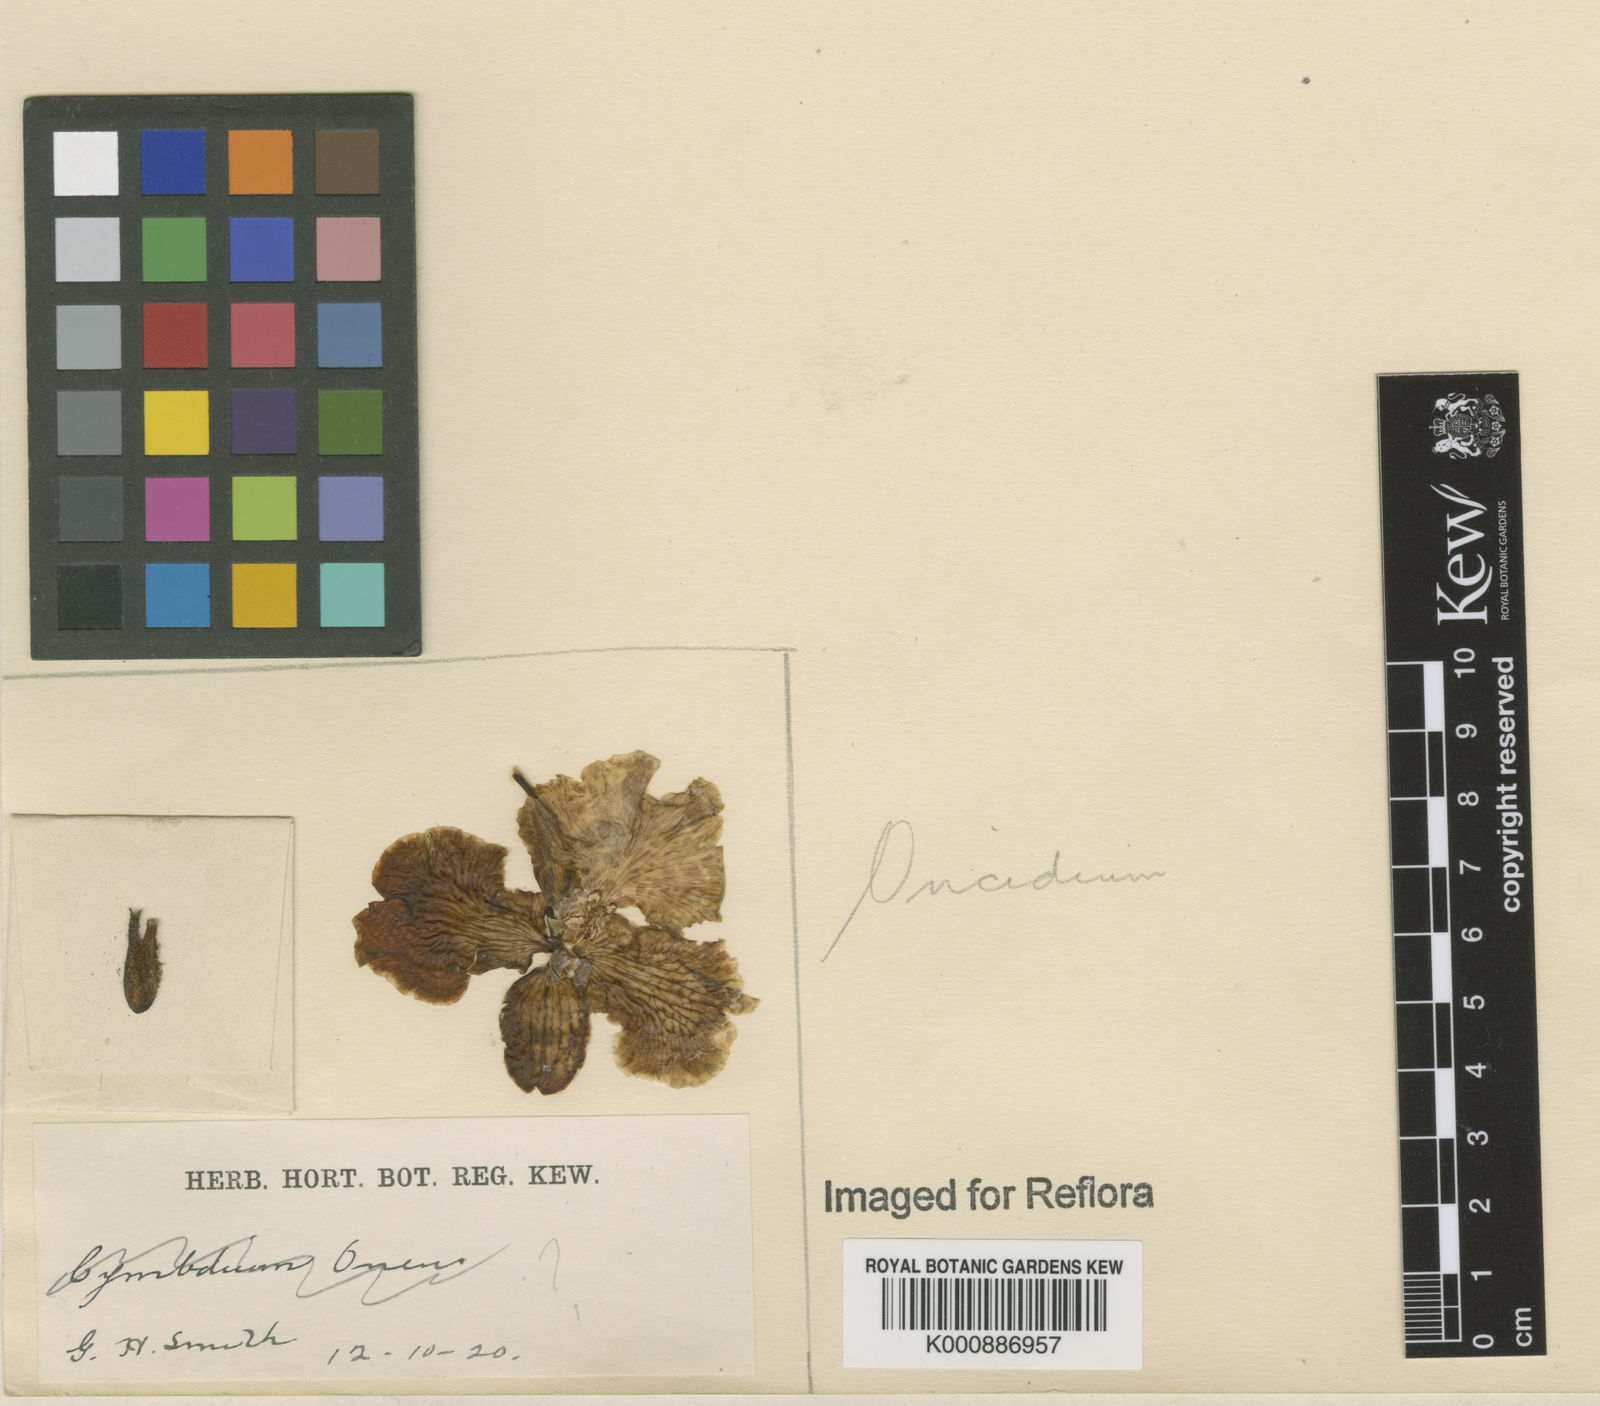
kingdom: Plantae
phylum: Tracheophyta
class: Liliopsida
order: Asparagales
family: Orchidaceae
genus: Gomesa
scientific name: Gomesa forbesii
